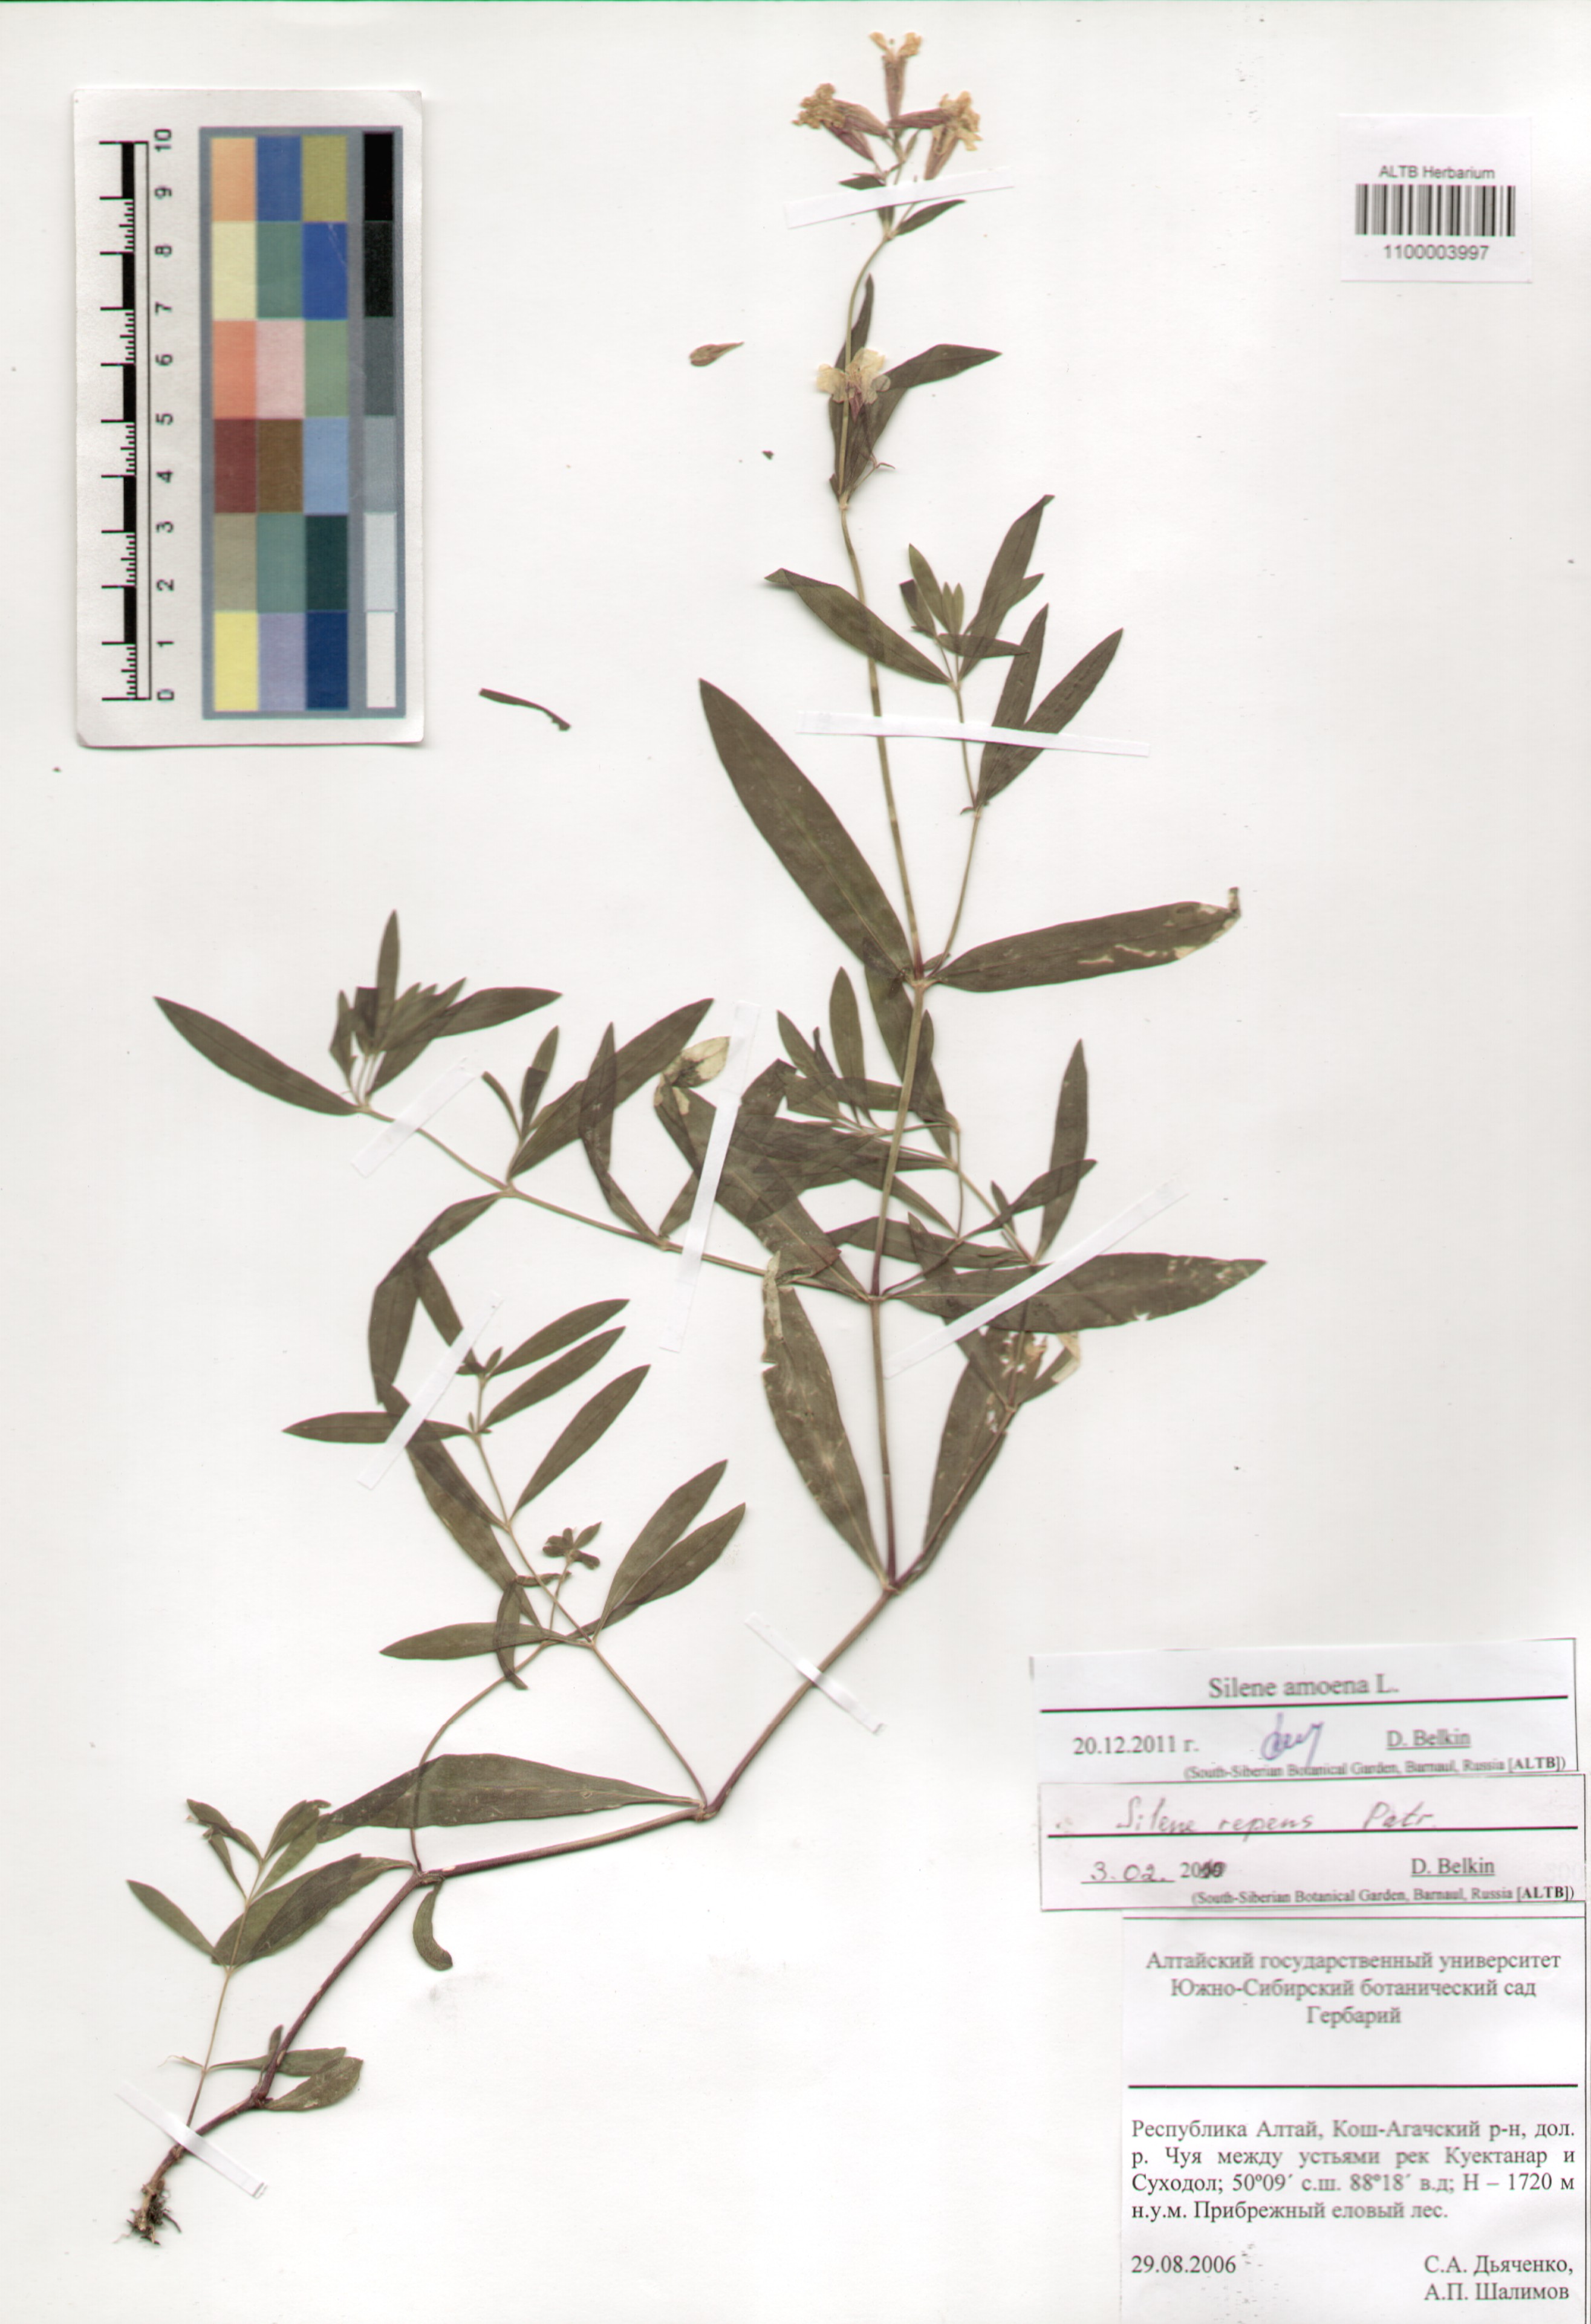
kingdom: Plantae
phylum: Tracheophyta
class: Magnoliopsida
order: Caryophyllales
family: Caryophyllaceae
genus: Silene
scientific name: Silene amoena
